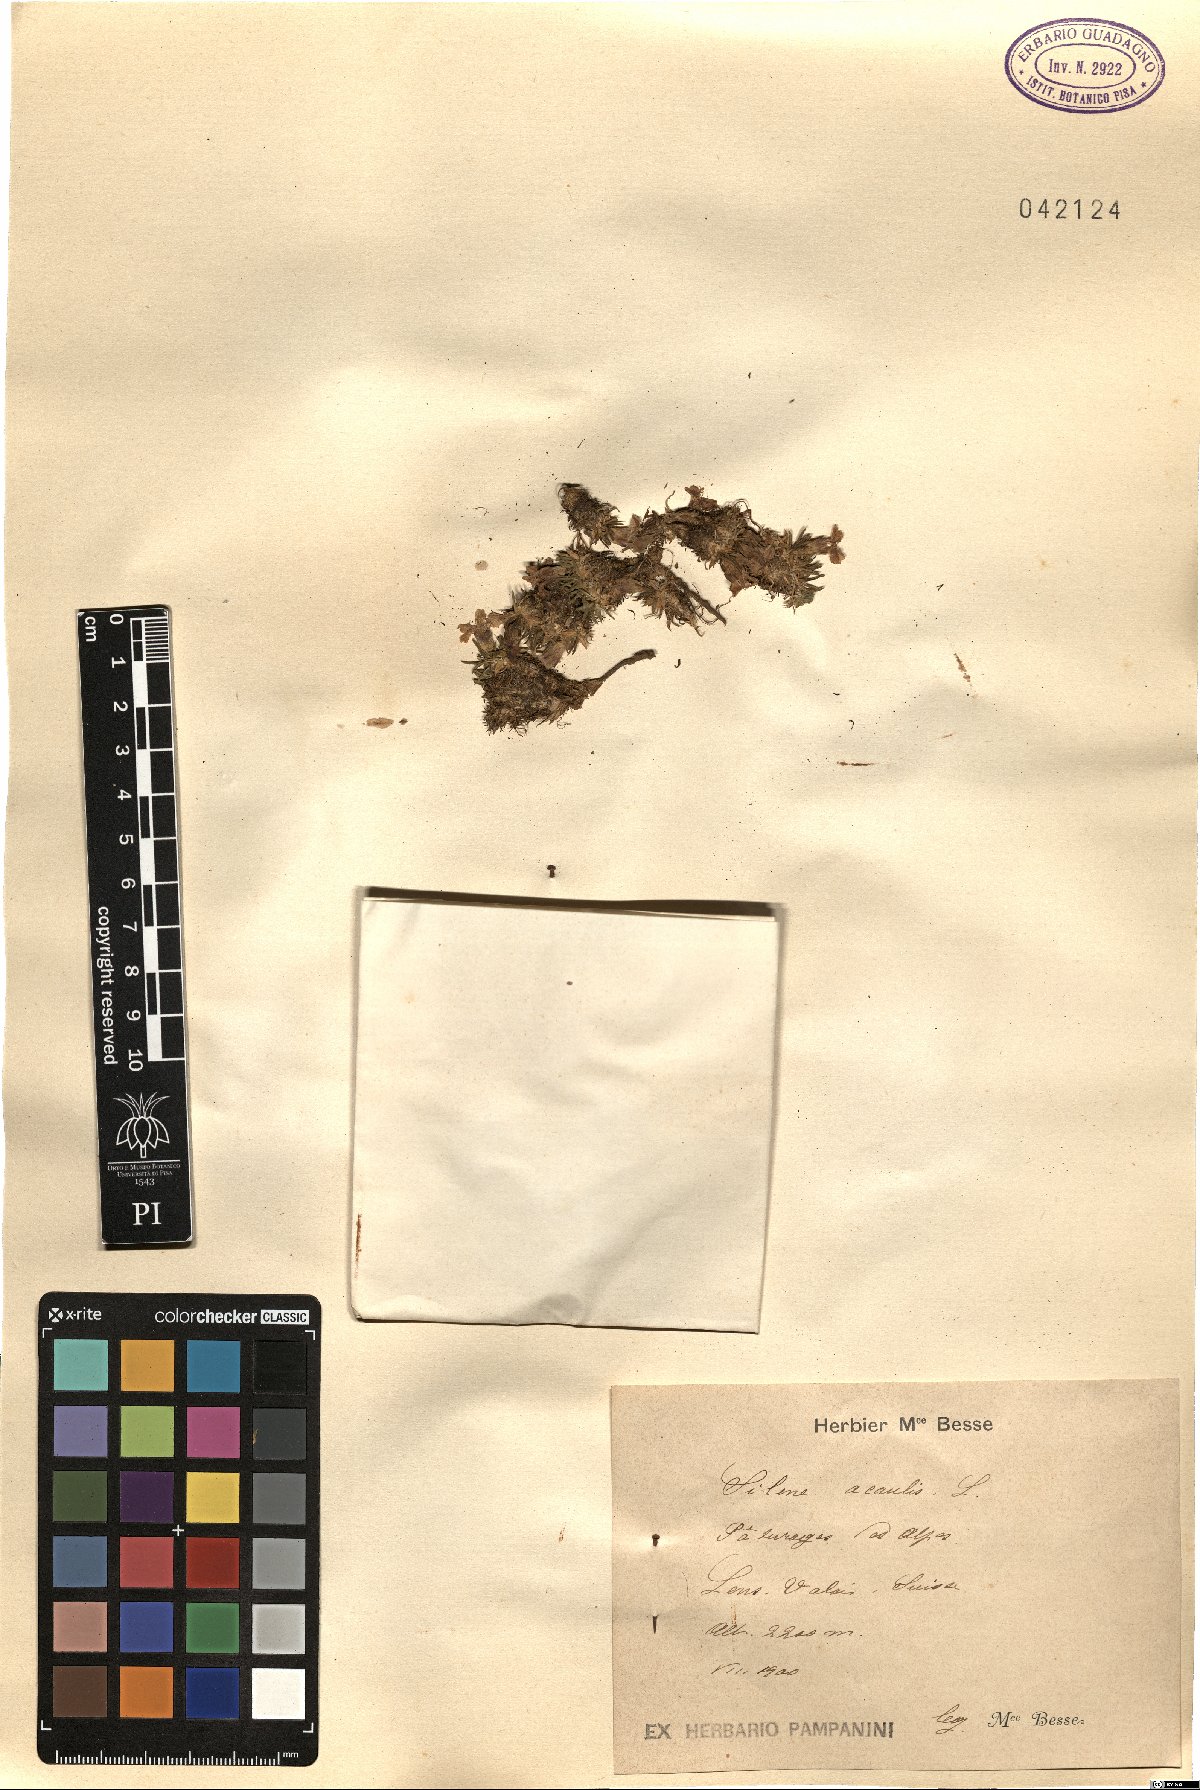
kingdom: Plantae
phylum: Tracheophyta
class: Magnoliopsida
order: Caryophyllales
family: Caryophyllaceae
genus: Silene
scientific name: Silene acaulis
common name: Moss campion
